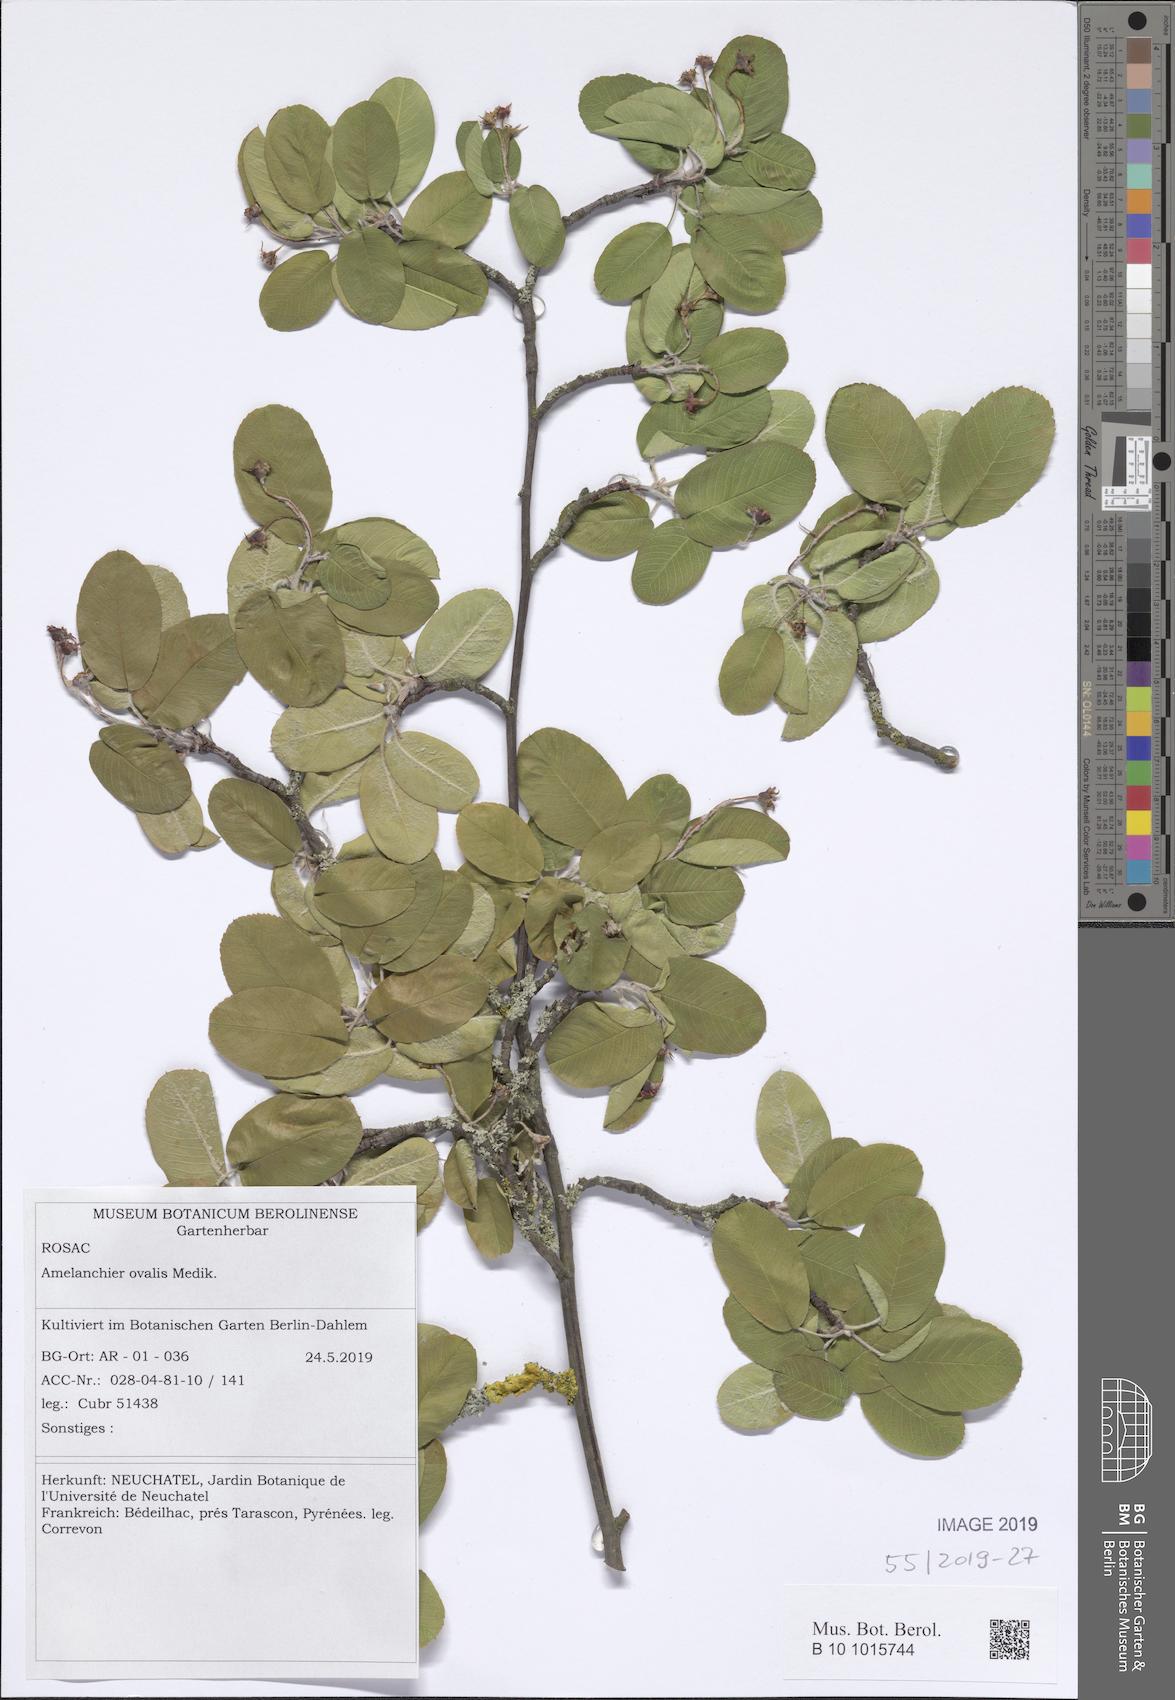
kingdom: Plantae
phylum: Tracheophyta
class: Magnoliopsida
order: Rosales
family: Rosaceae
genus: Amelanchier
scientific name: Amelanchier ovalis
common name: Serviceberry
